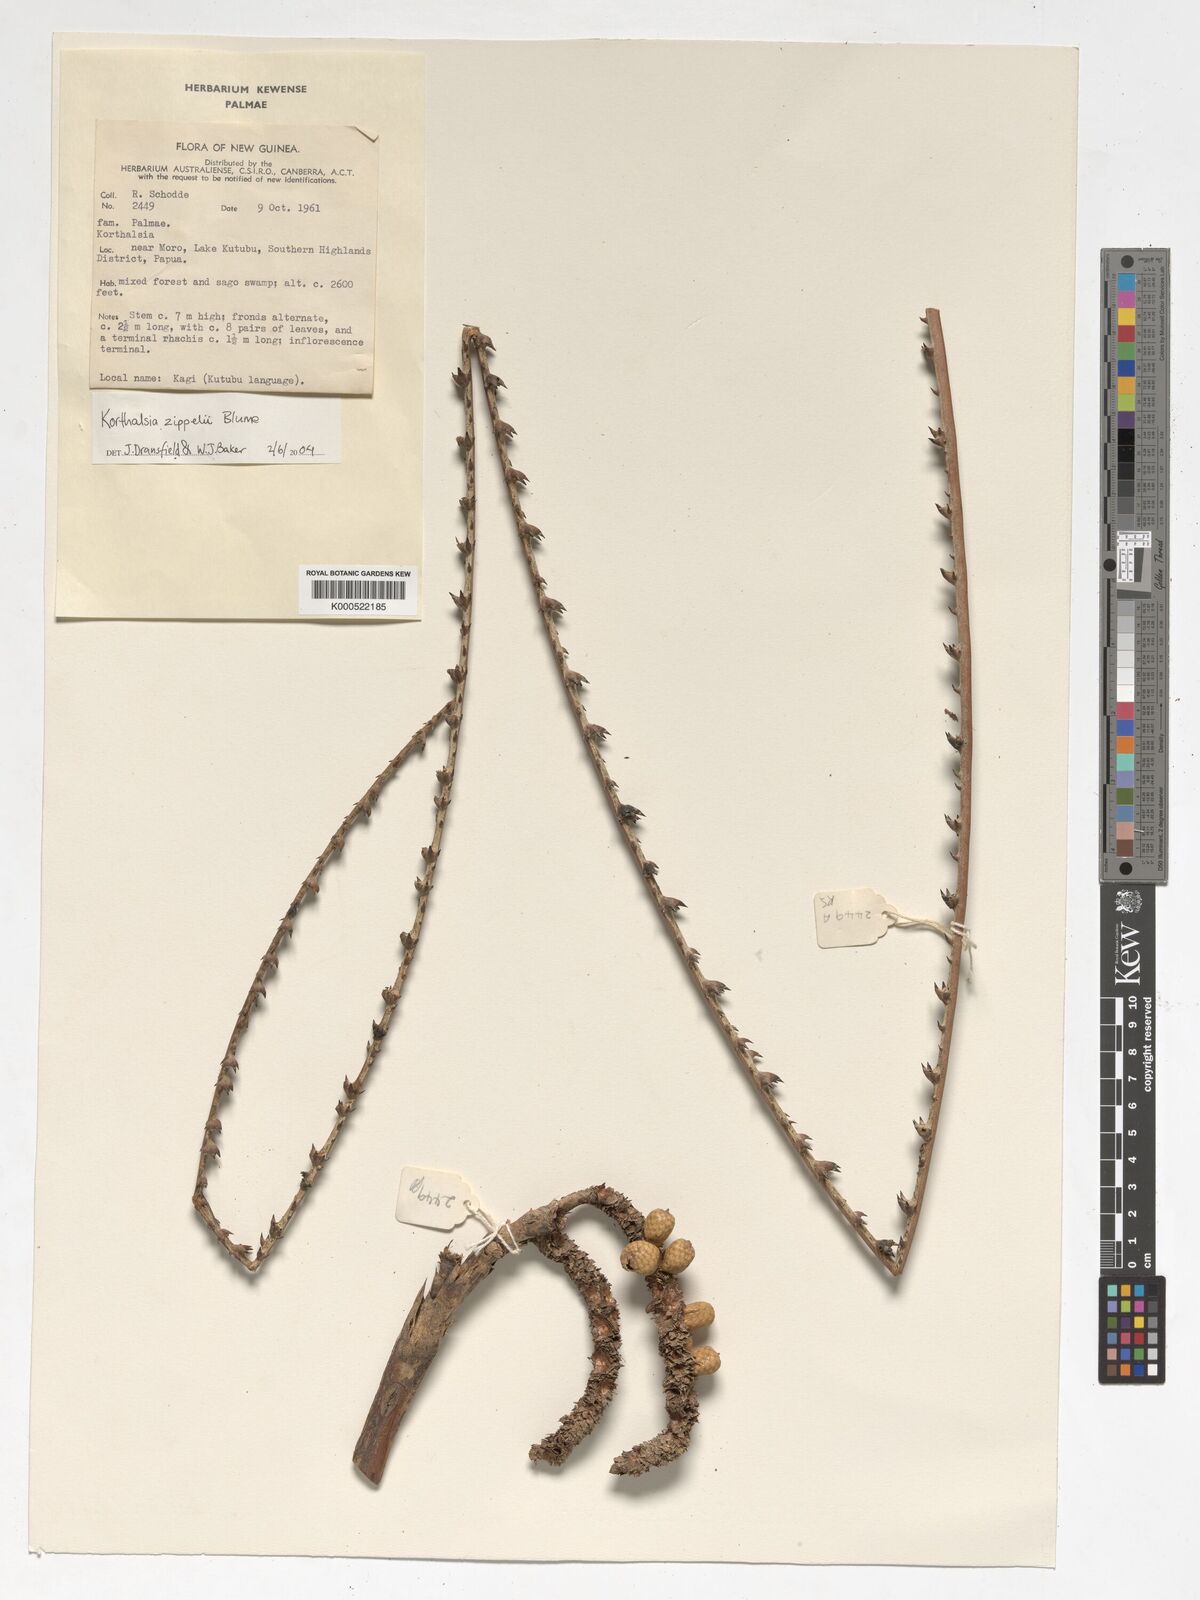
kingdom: Plantae
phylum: Tracheophyta
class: Liliopsida
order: Arecales
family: Arecaceae
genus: Korthalsia
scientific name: Korthalsia zippelii
